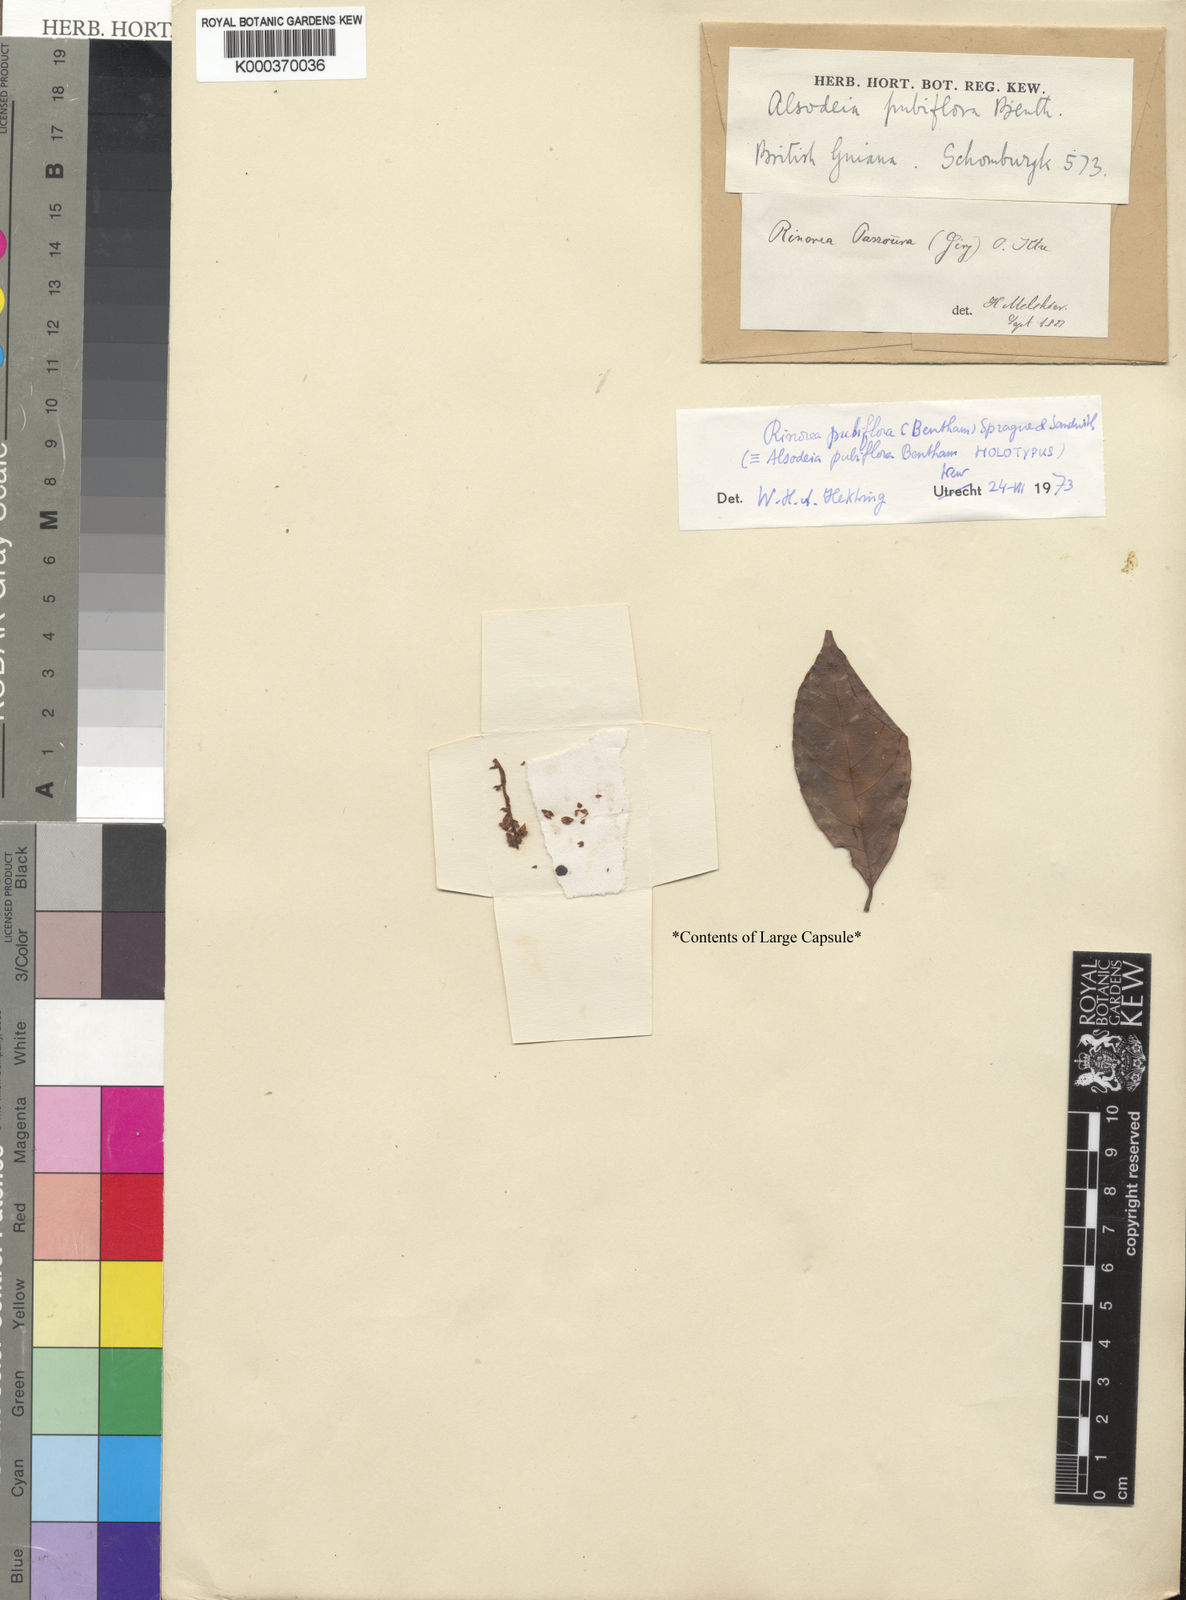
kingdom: Plantae
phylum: Tracheophyta
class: Magnoliopsida
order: Malpighiales
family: Violaceae
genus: Rinorea
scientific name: Rinorea pubiflora
